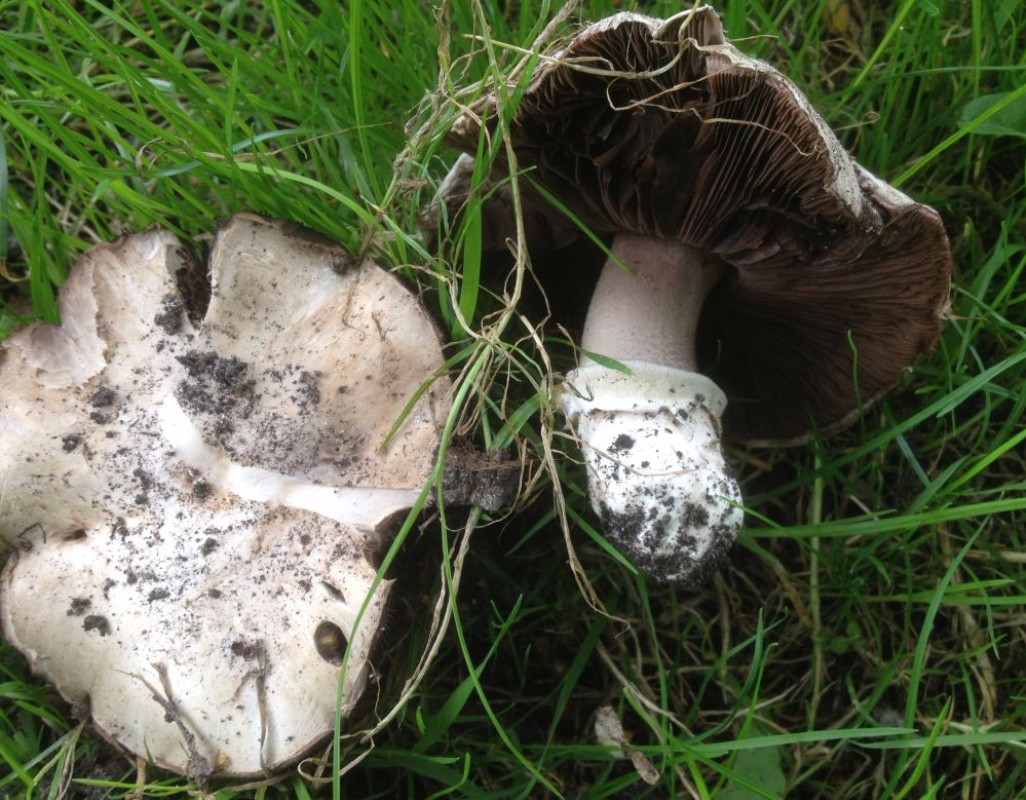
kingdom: Fungi
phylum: Basidiomycota
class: Agaricomycetes
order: Agaricales
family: Agaricaceae
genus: Agaricus
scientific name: Agaricus bitorquis
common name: vej-champignon
